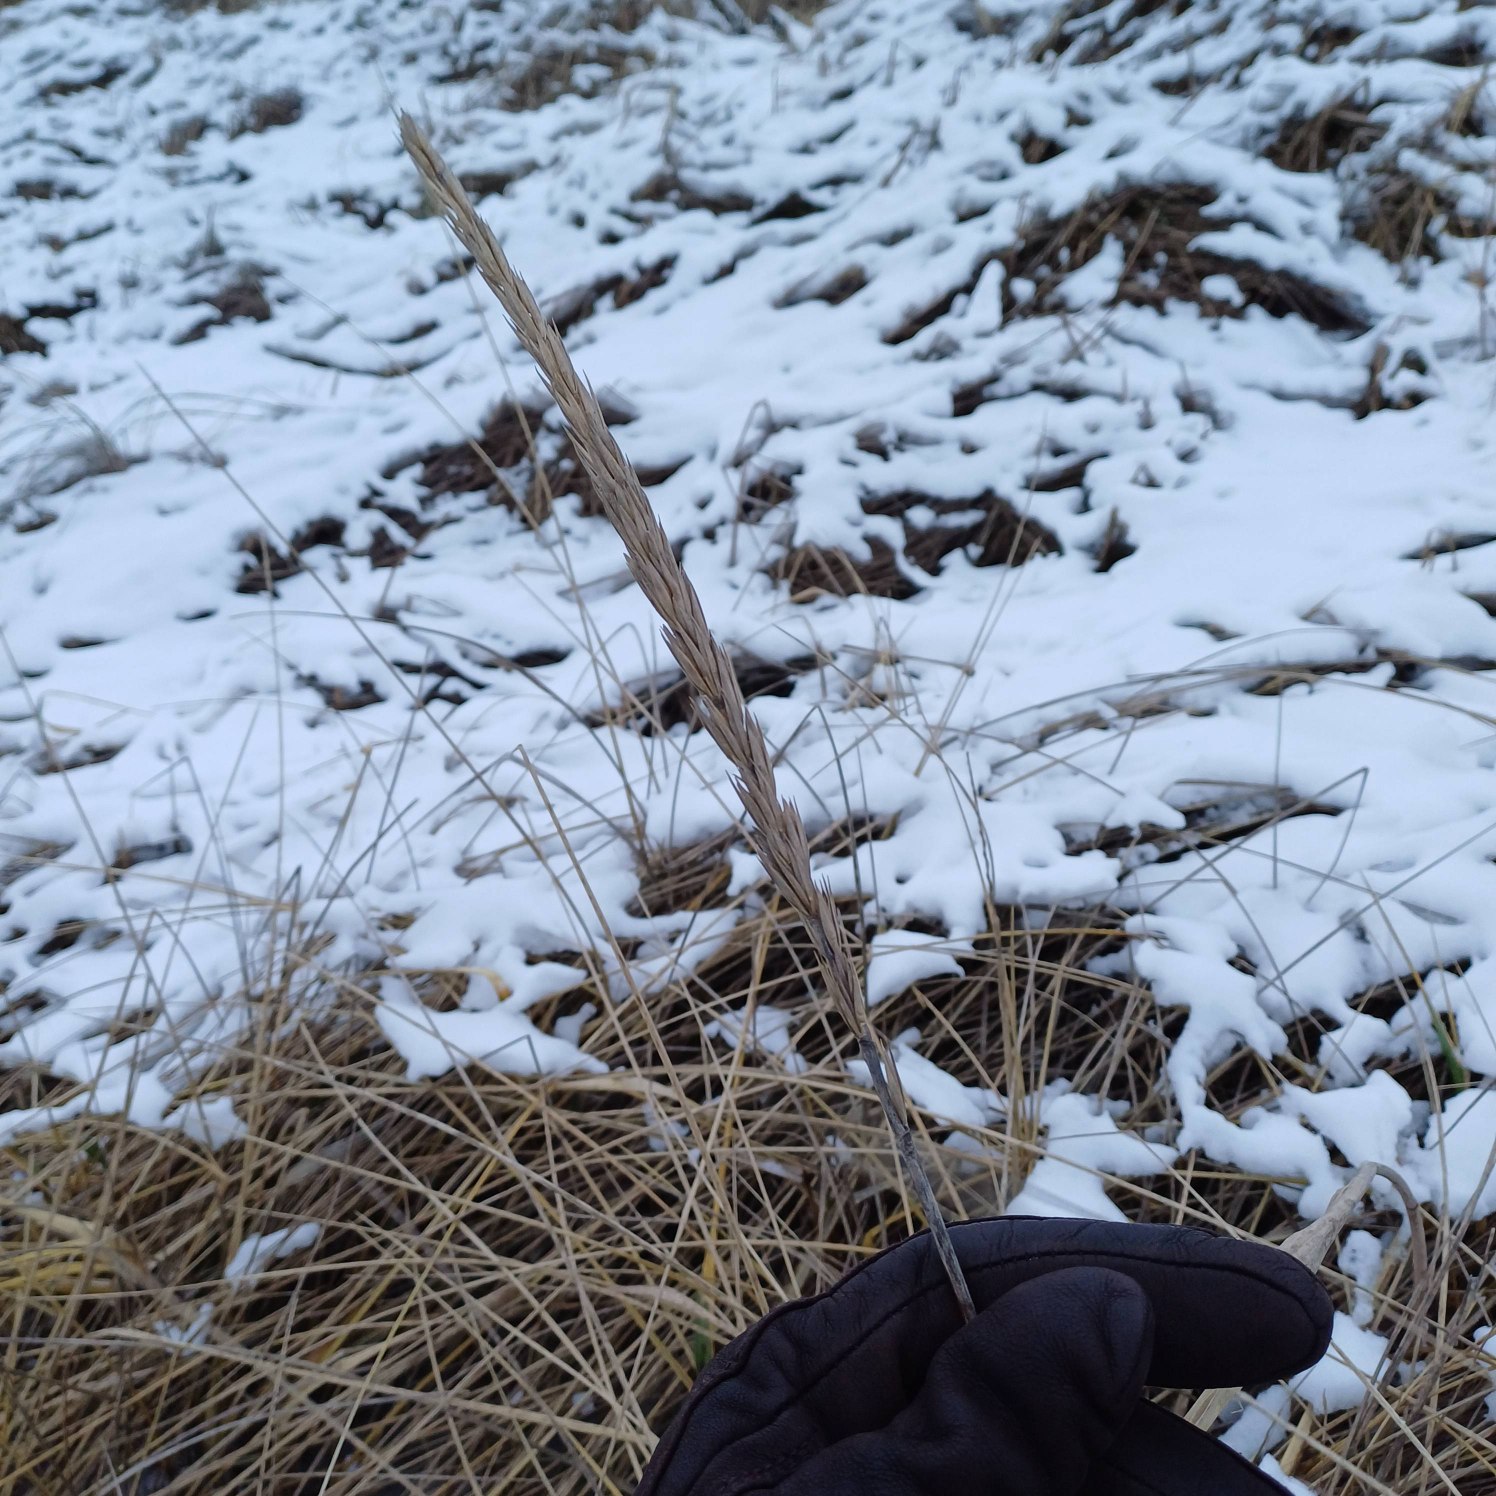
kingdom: Plantae
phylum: Tracheophyta
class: Liliopsida
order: Poales
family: Poaceae
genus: Leymus
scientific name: Leymus arenarius
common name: Marehalm
